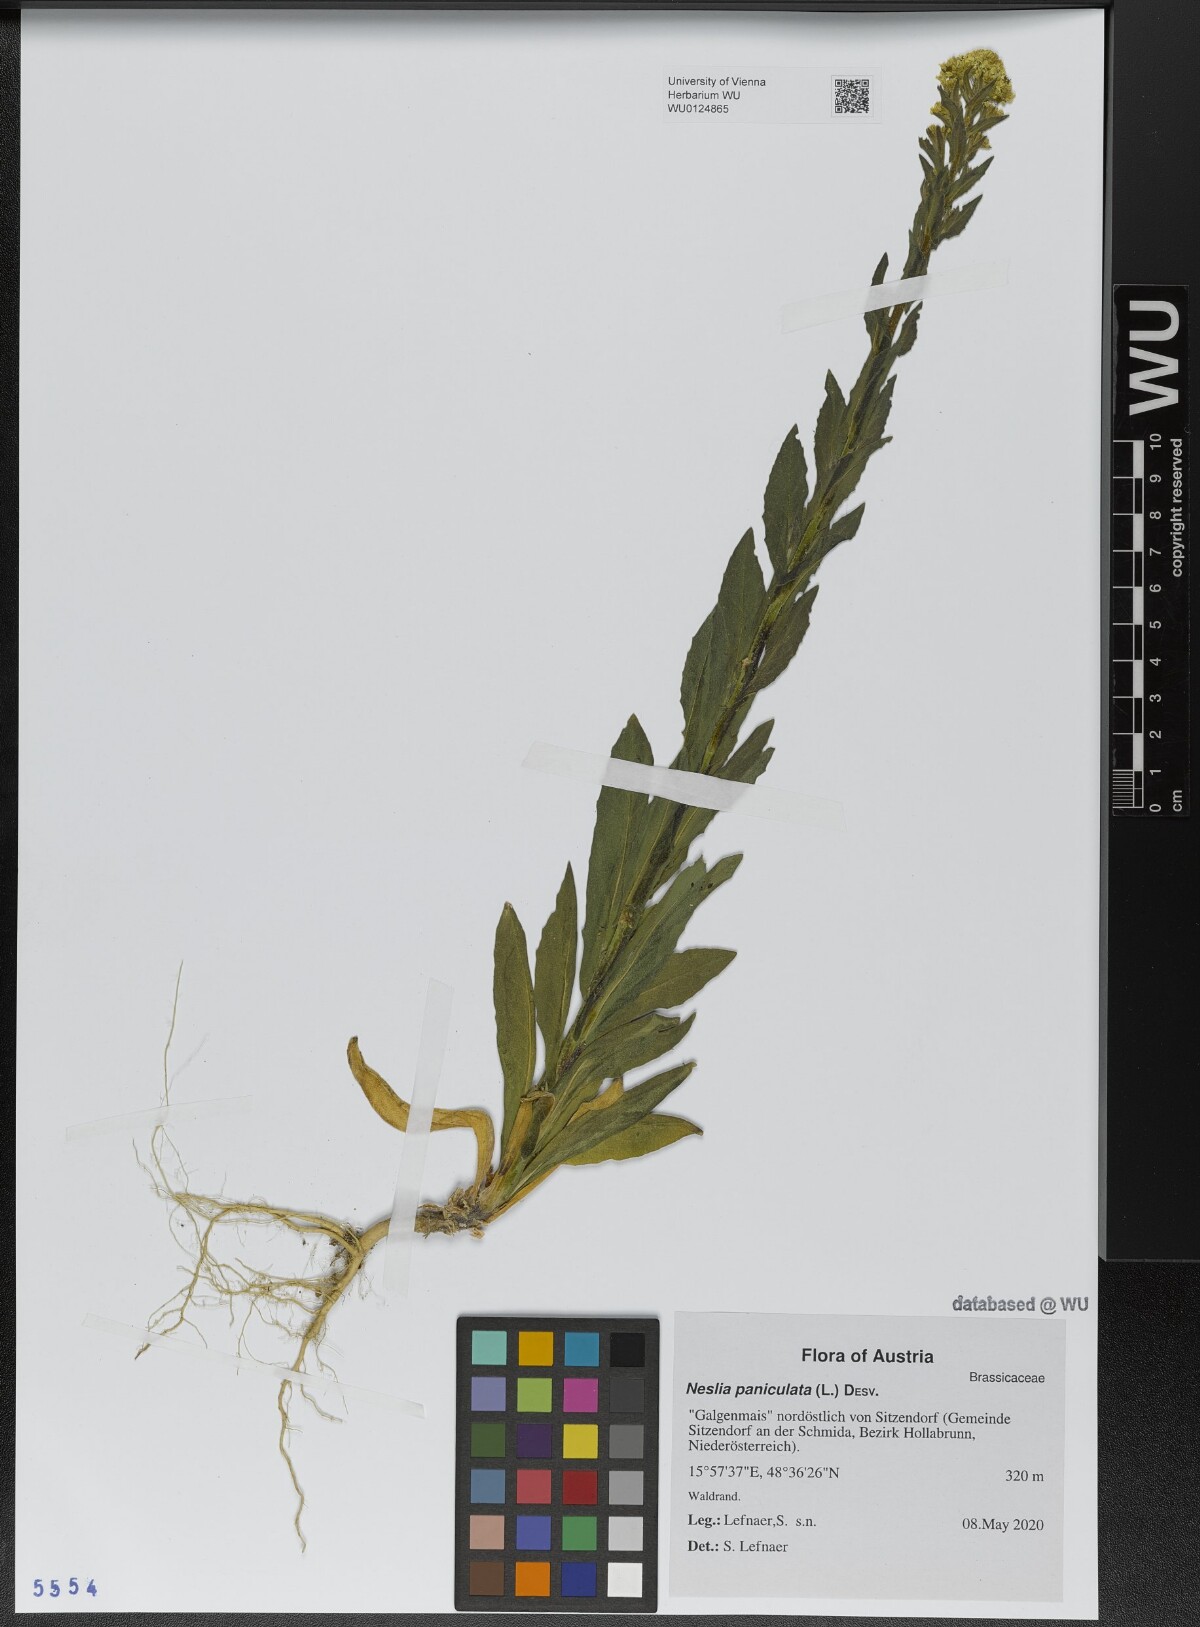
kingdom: Plantae
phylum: Tracheophyta
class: Magnoliopsida
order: Brassicales
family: Brassicaceae
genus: Neslia
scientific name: Neslia paniculata
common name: Ball mustard
